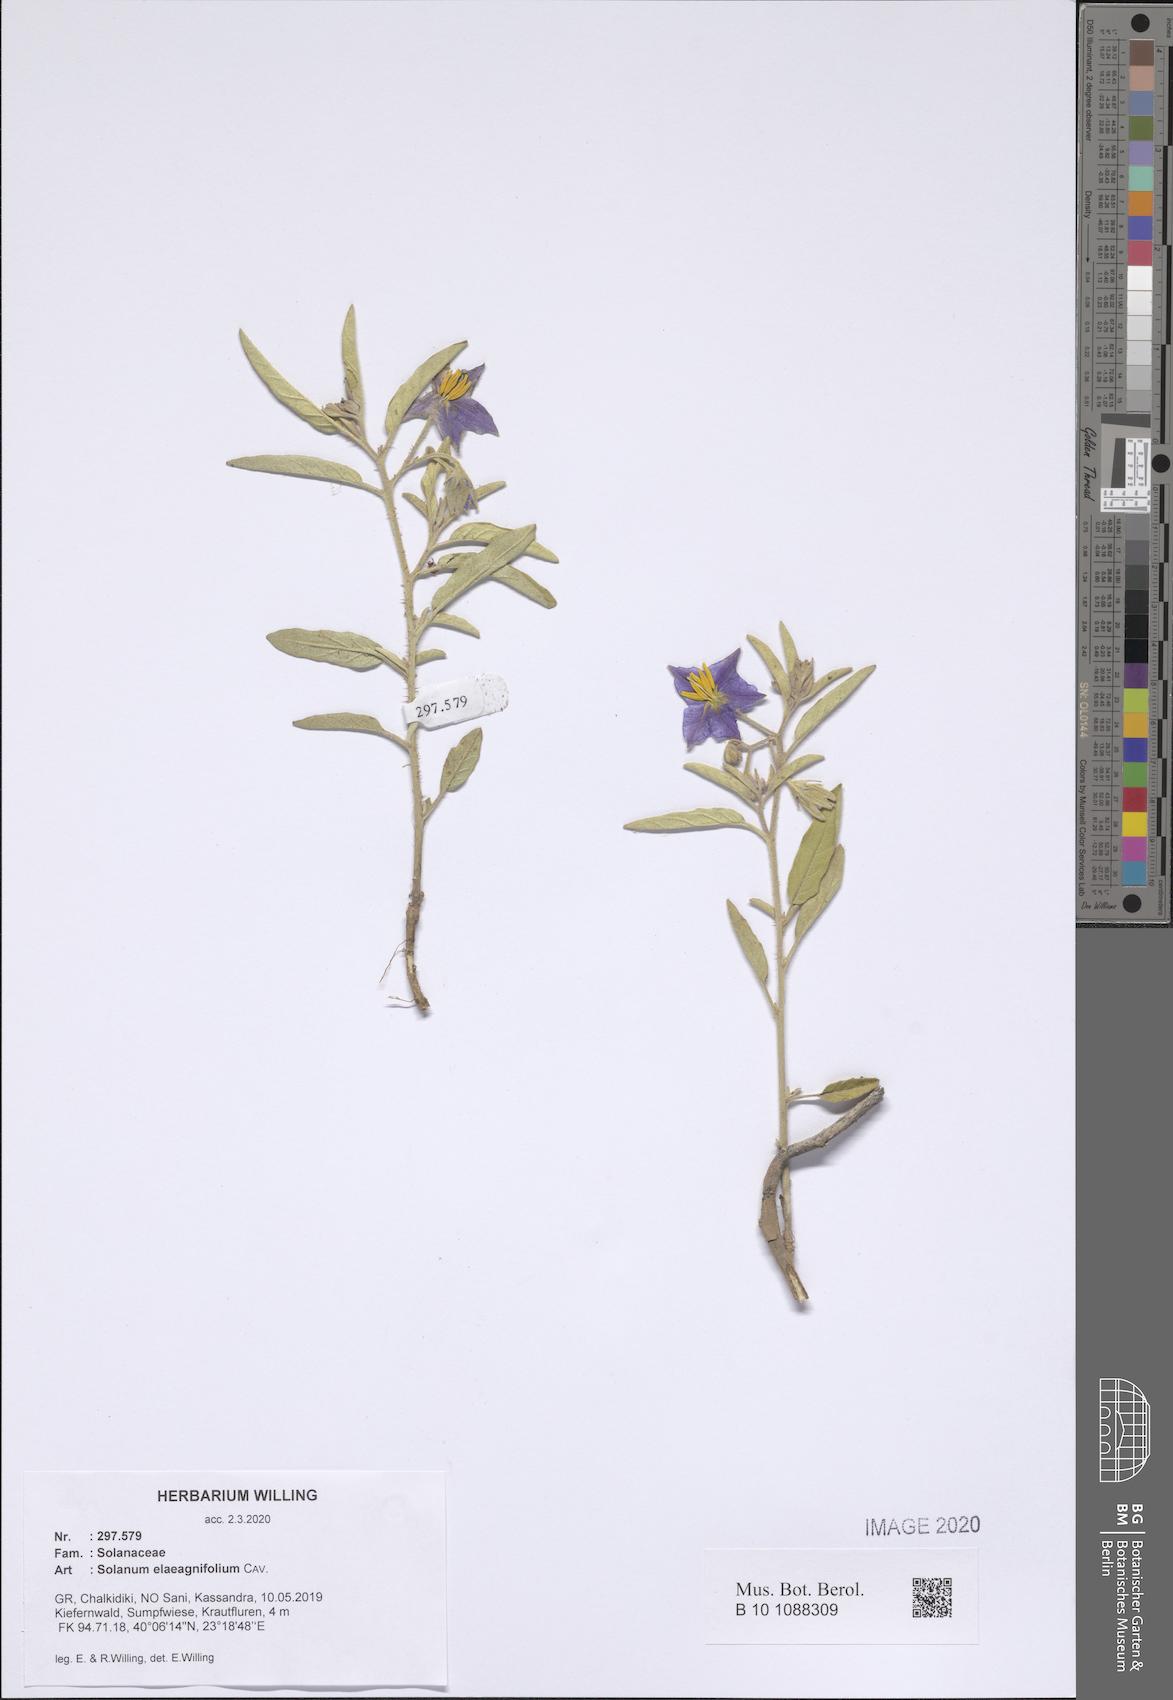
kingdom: Plantae
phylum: Tracheophyta
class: Magnoliopsida
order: Solanales
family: Solanaceae
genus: Solanum
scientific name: Solanum elaeagnifolium
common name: Silverleaf nightshade
